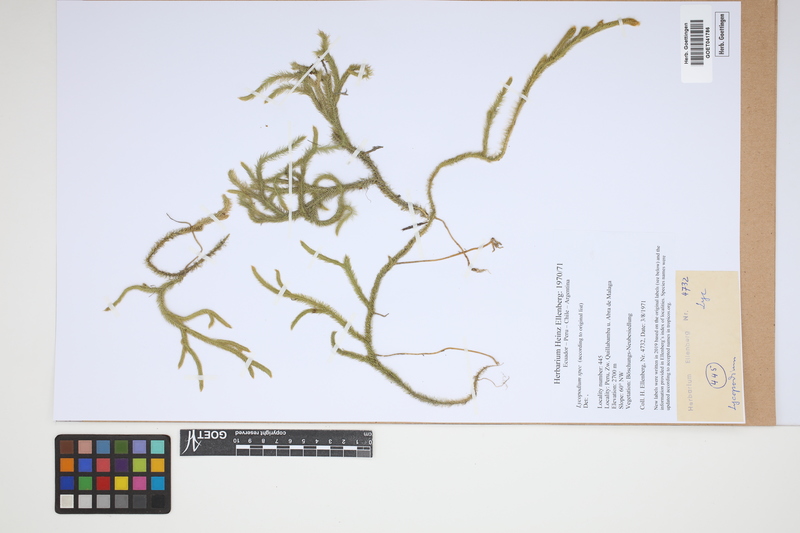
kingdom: Plantae
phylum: Tracheophyta
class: Lycopodiopsida
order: Lycopodiales
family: Lycopodiaceae
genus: Lycopodium
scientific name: Lycopodium
